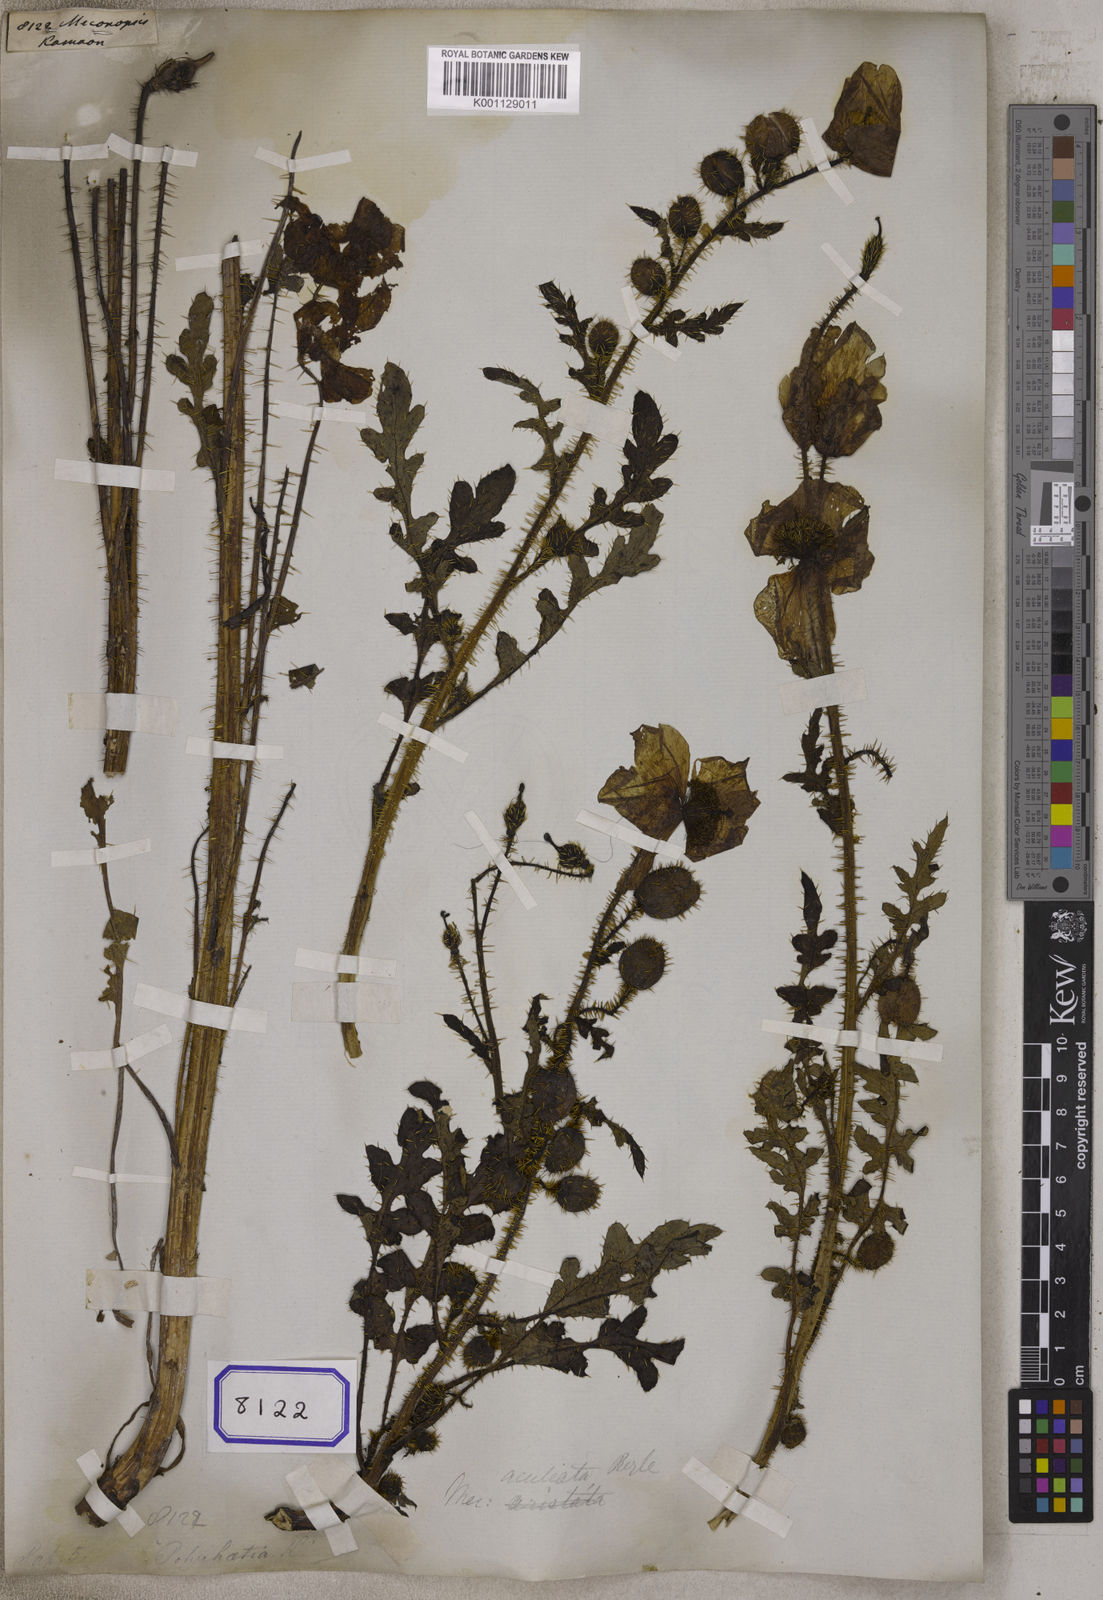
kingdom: Plantae
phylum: Tracheophyta
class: Magnoliopsida
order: Ranunculales
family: Papaveraceae
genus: Meconopsis
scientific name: Meconopsis
